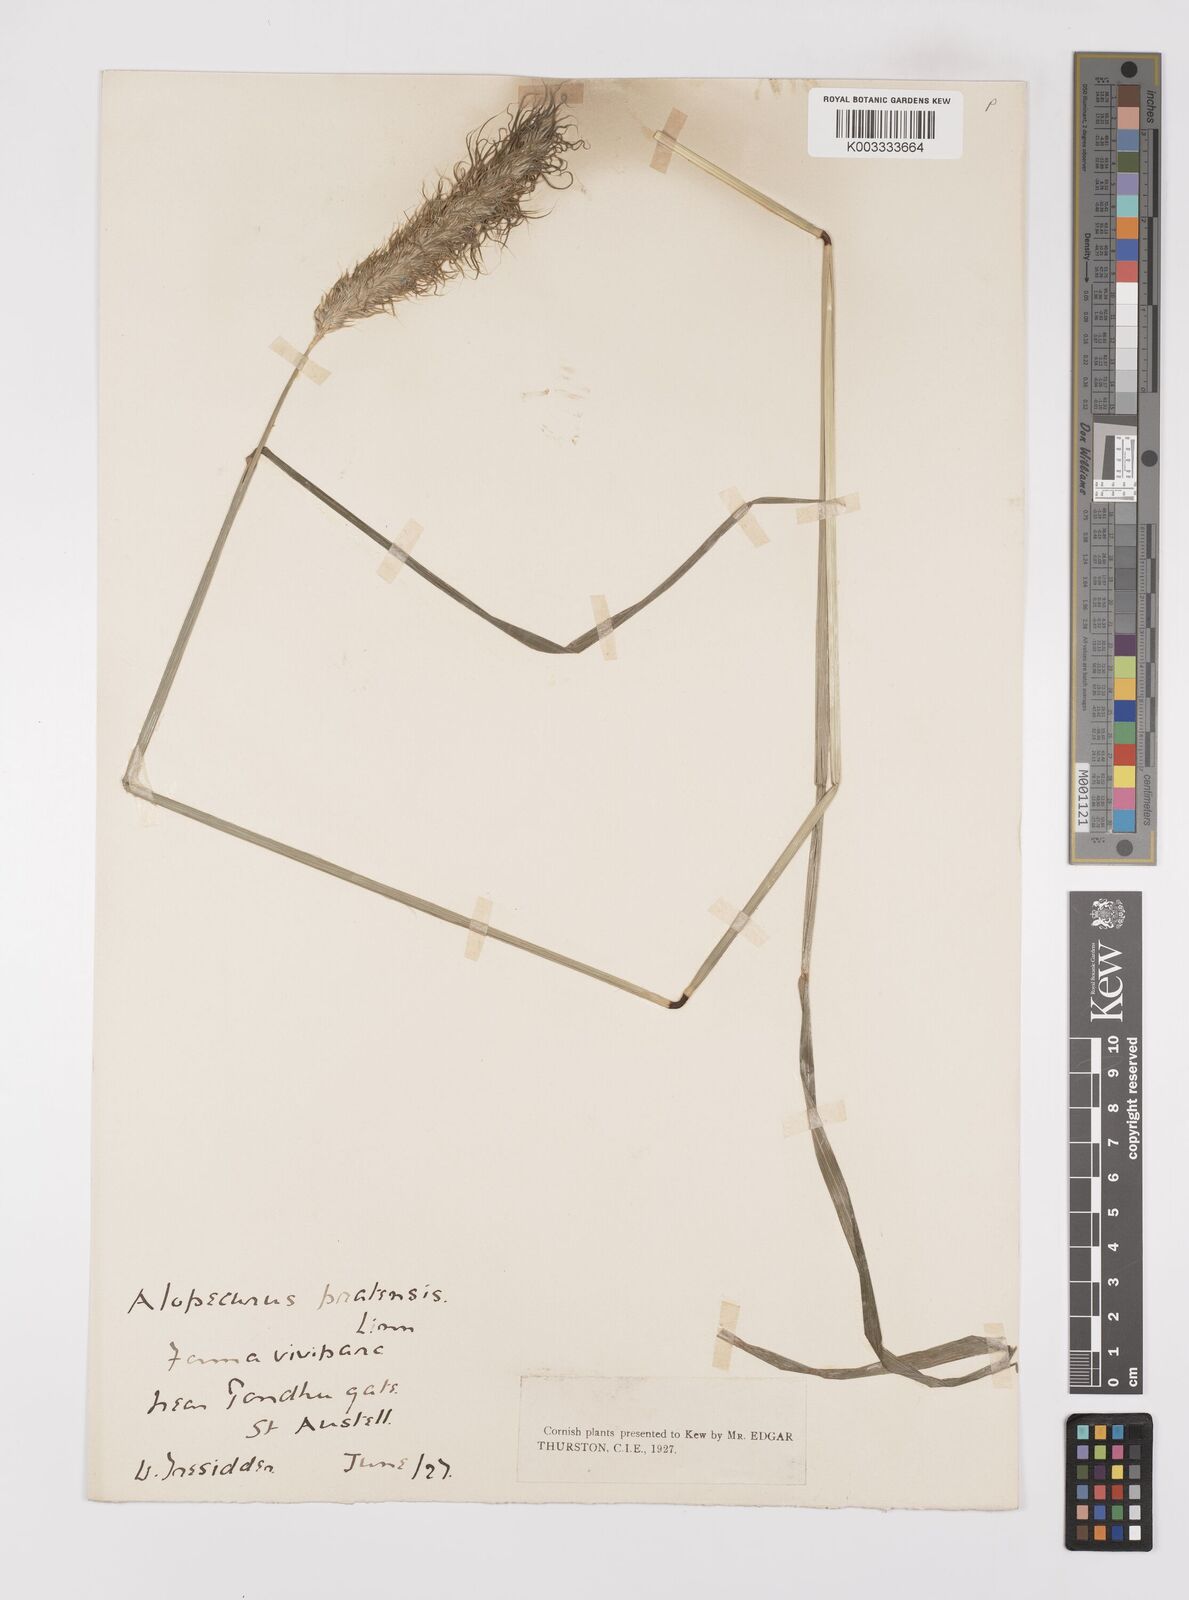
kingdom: Plantae
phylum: Tracheophyta
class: Liliopsida
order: Poales
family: Poaceae
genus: Alopecurus
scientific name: Alopecurus pratensis
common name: Meadow foxtail
